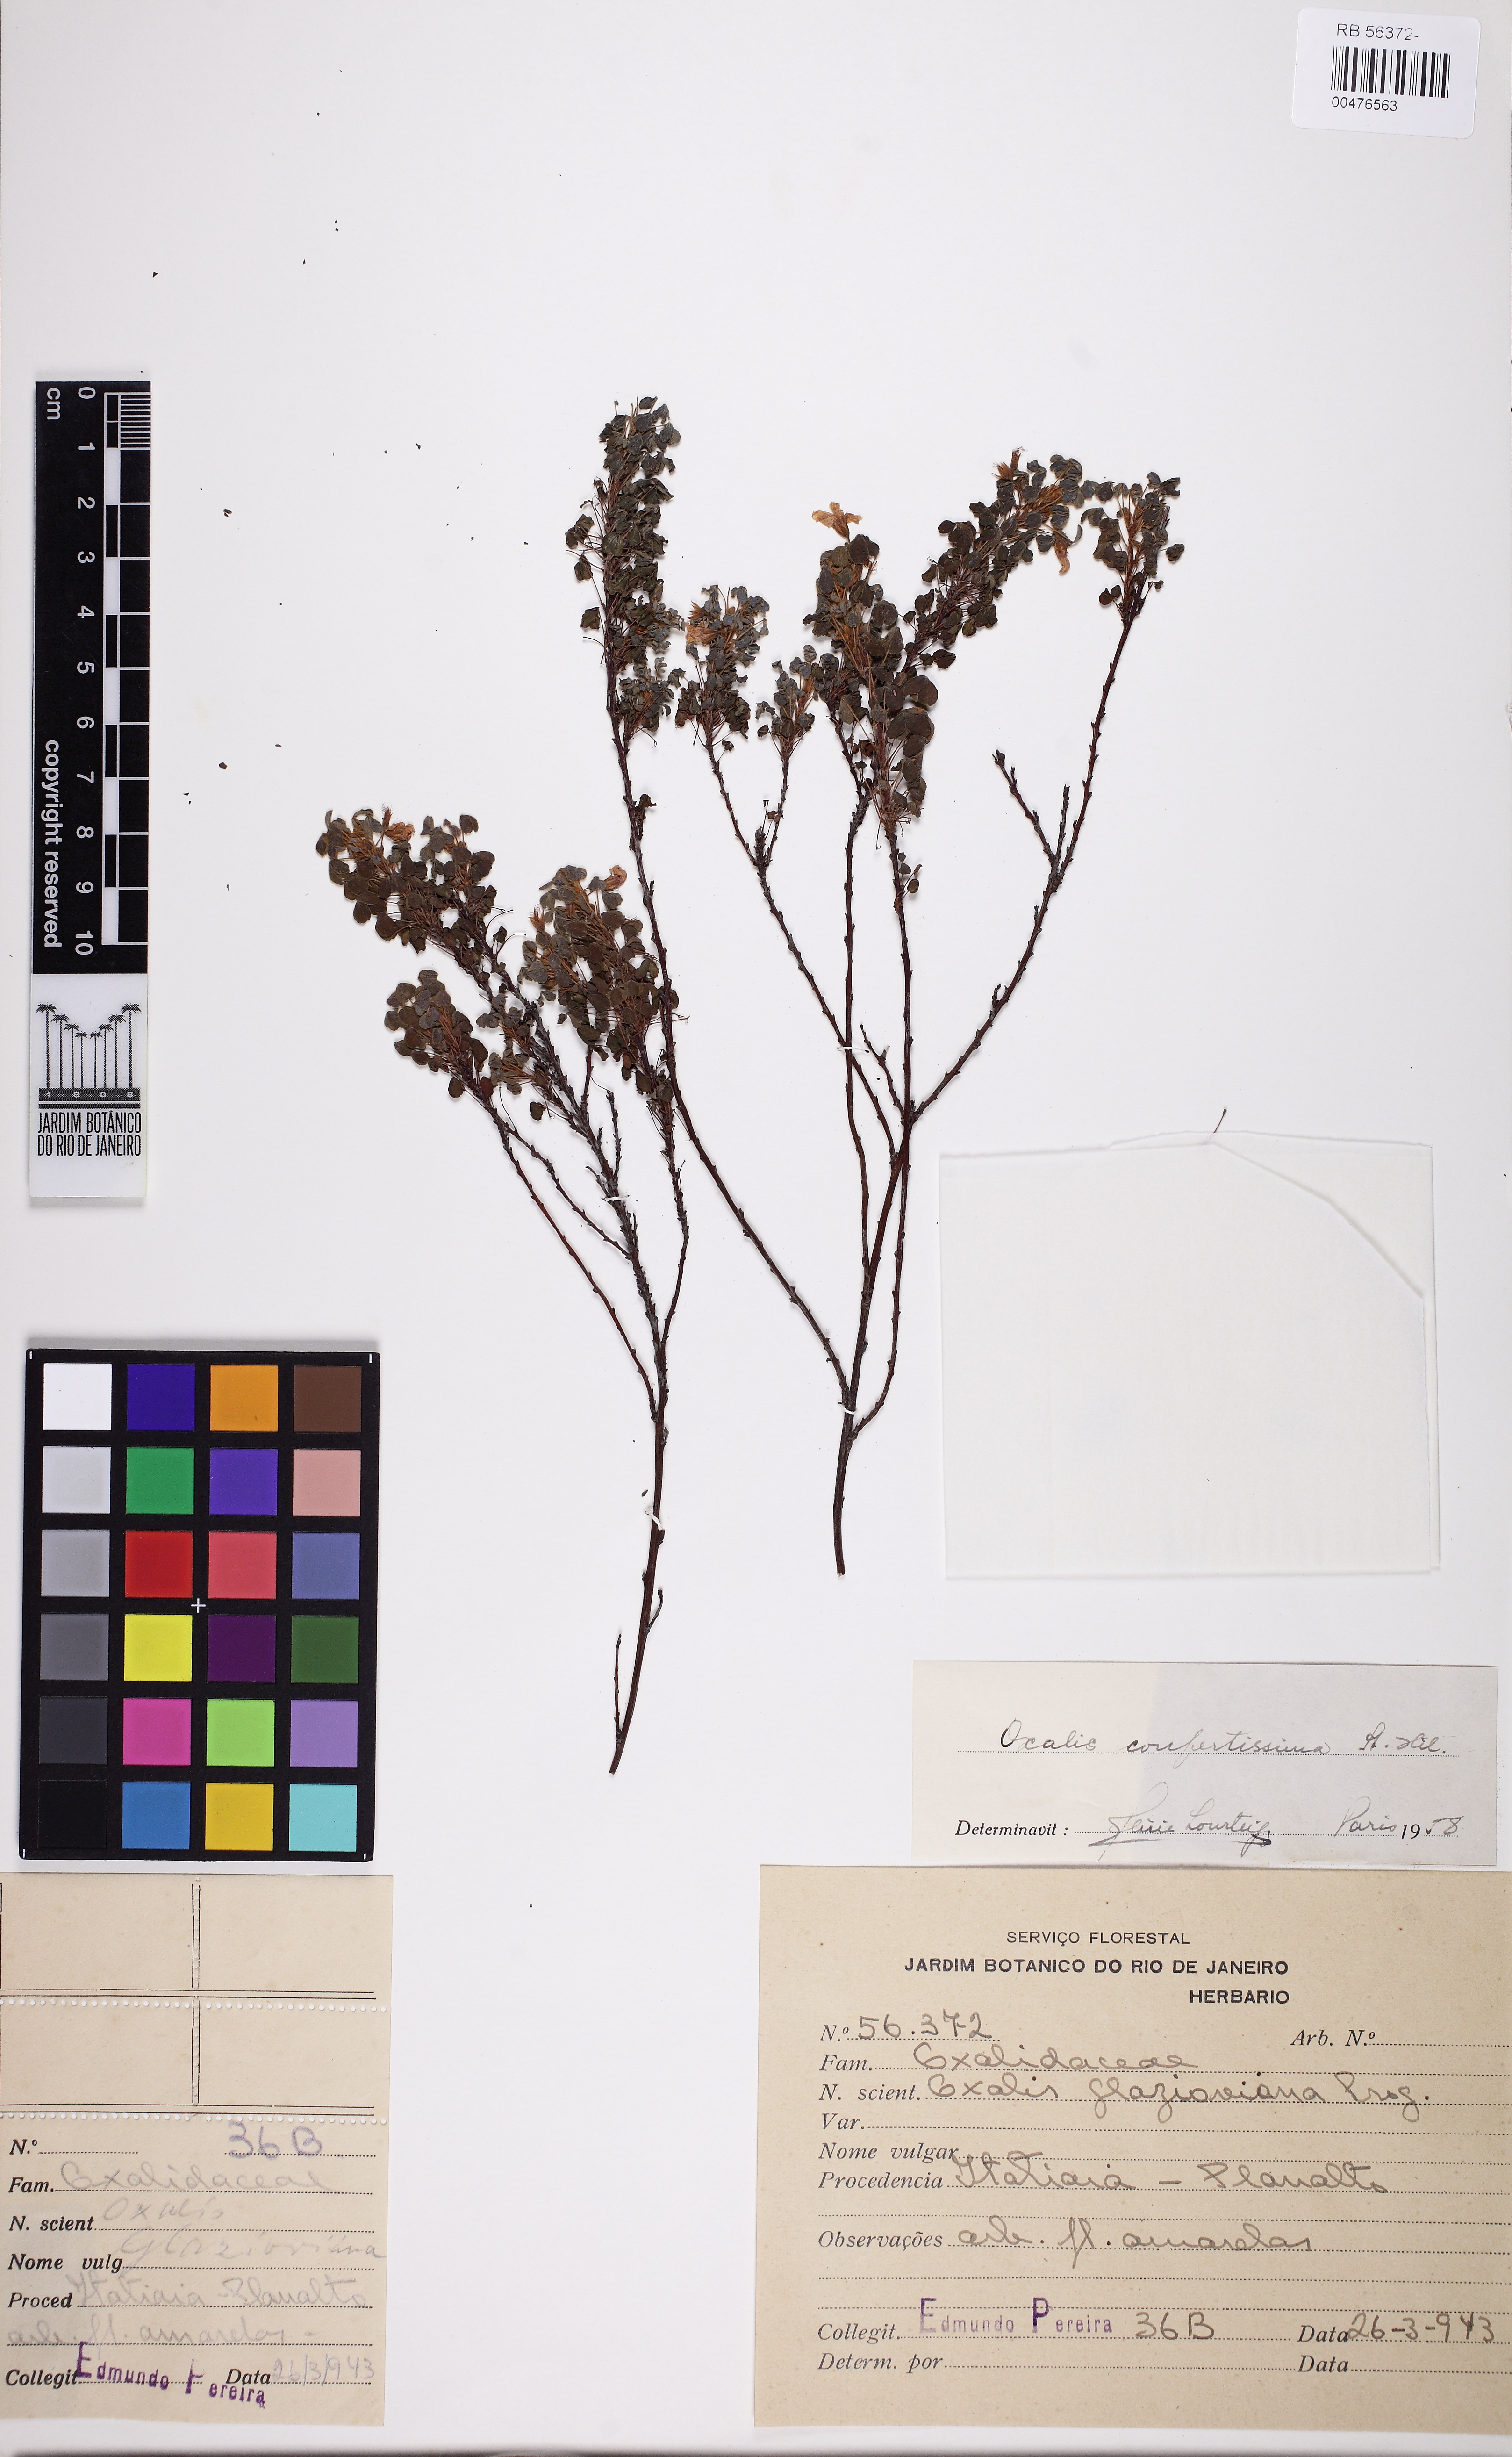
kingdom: Plantae
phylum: Tracheophyta
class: Magnoliopsida
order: Oxalidales
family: Oxalidaceae
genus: Oxalis
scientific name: Oxalis confertissima
